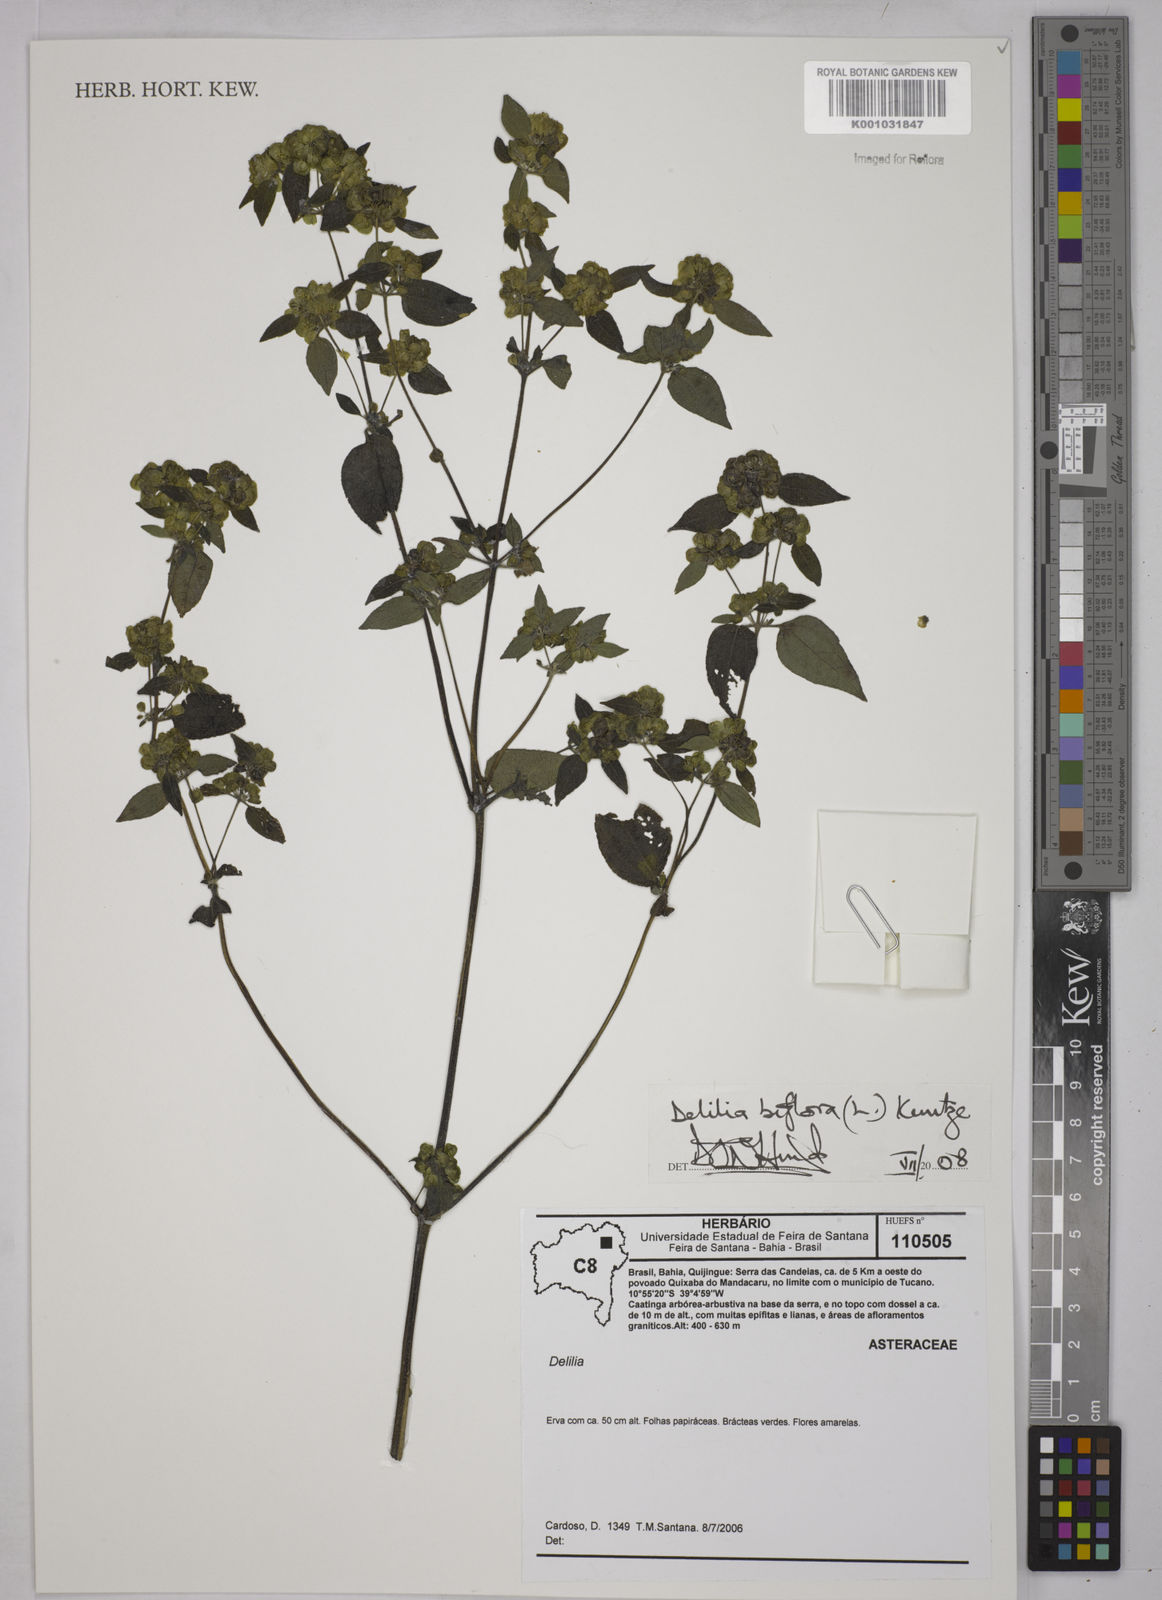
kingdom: Plantae
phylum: Tracheophyta
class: Magnoliopsida
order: Asterales
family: Asteraceae
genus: Delilia
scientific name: Delilia biflora
